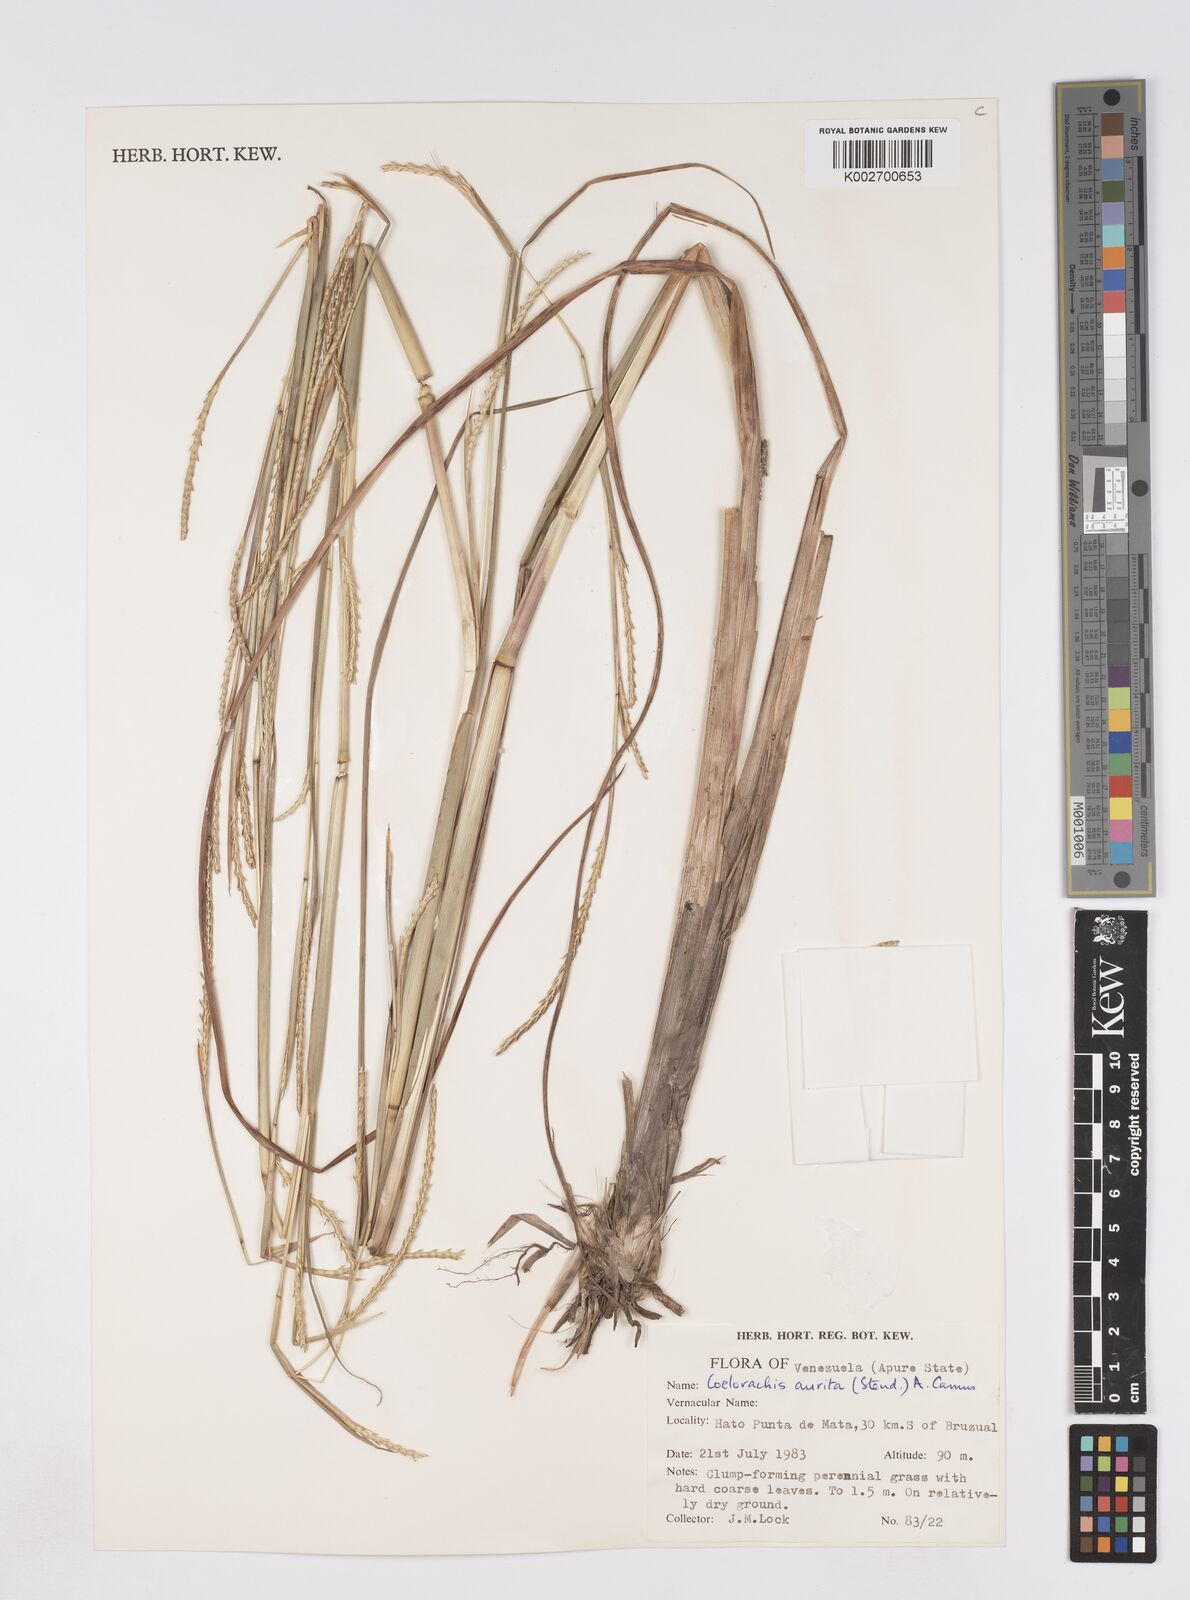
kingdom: Plantae
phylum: Tracheophyta
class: Liliopsida
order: Poales
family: Poaceae
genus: Rottboellia
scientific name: Rottboellia aurita
